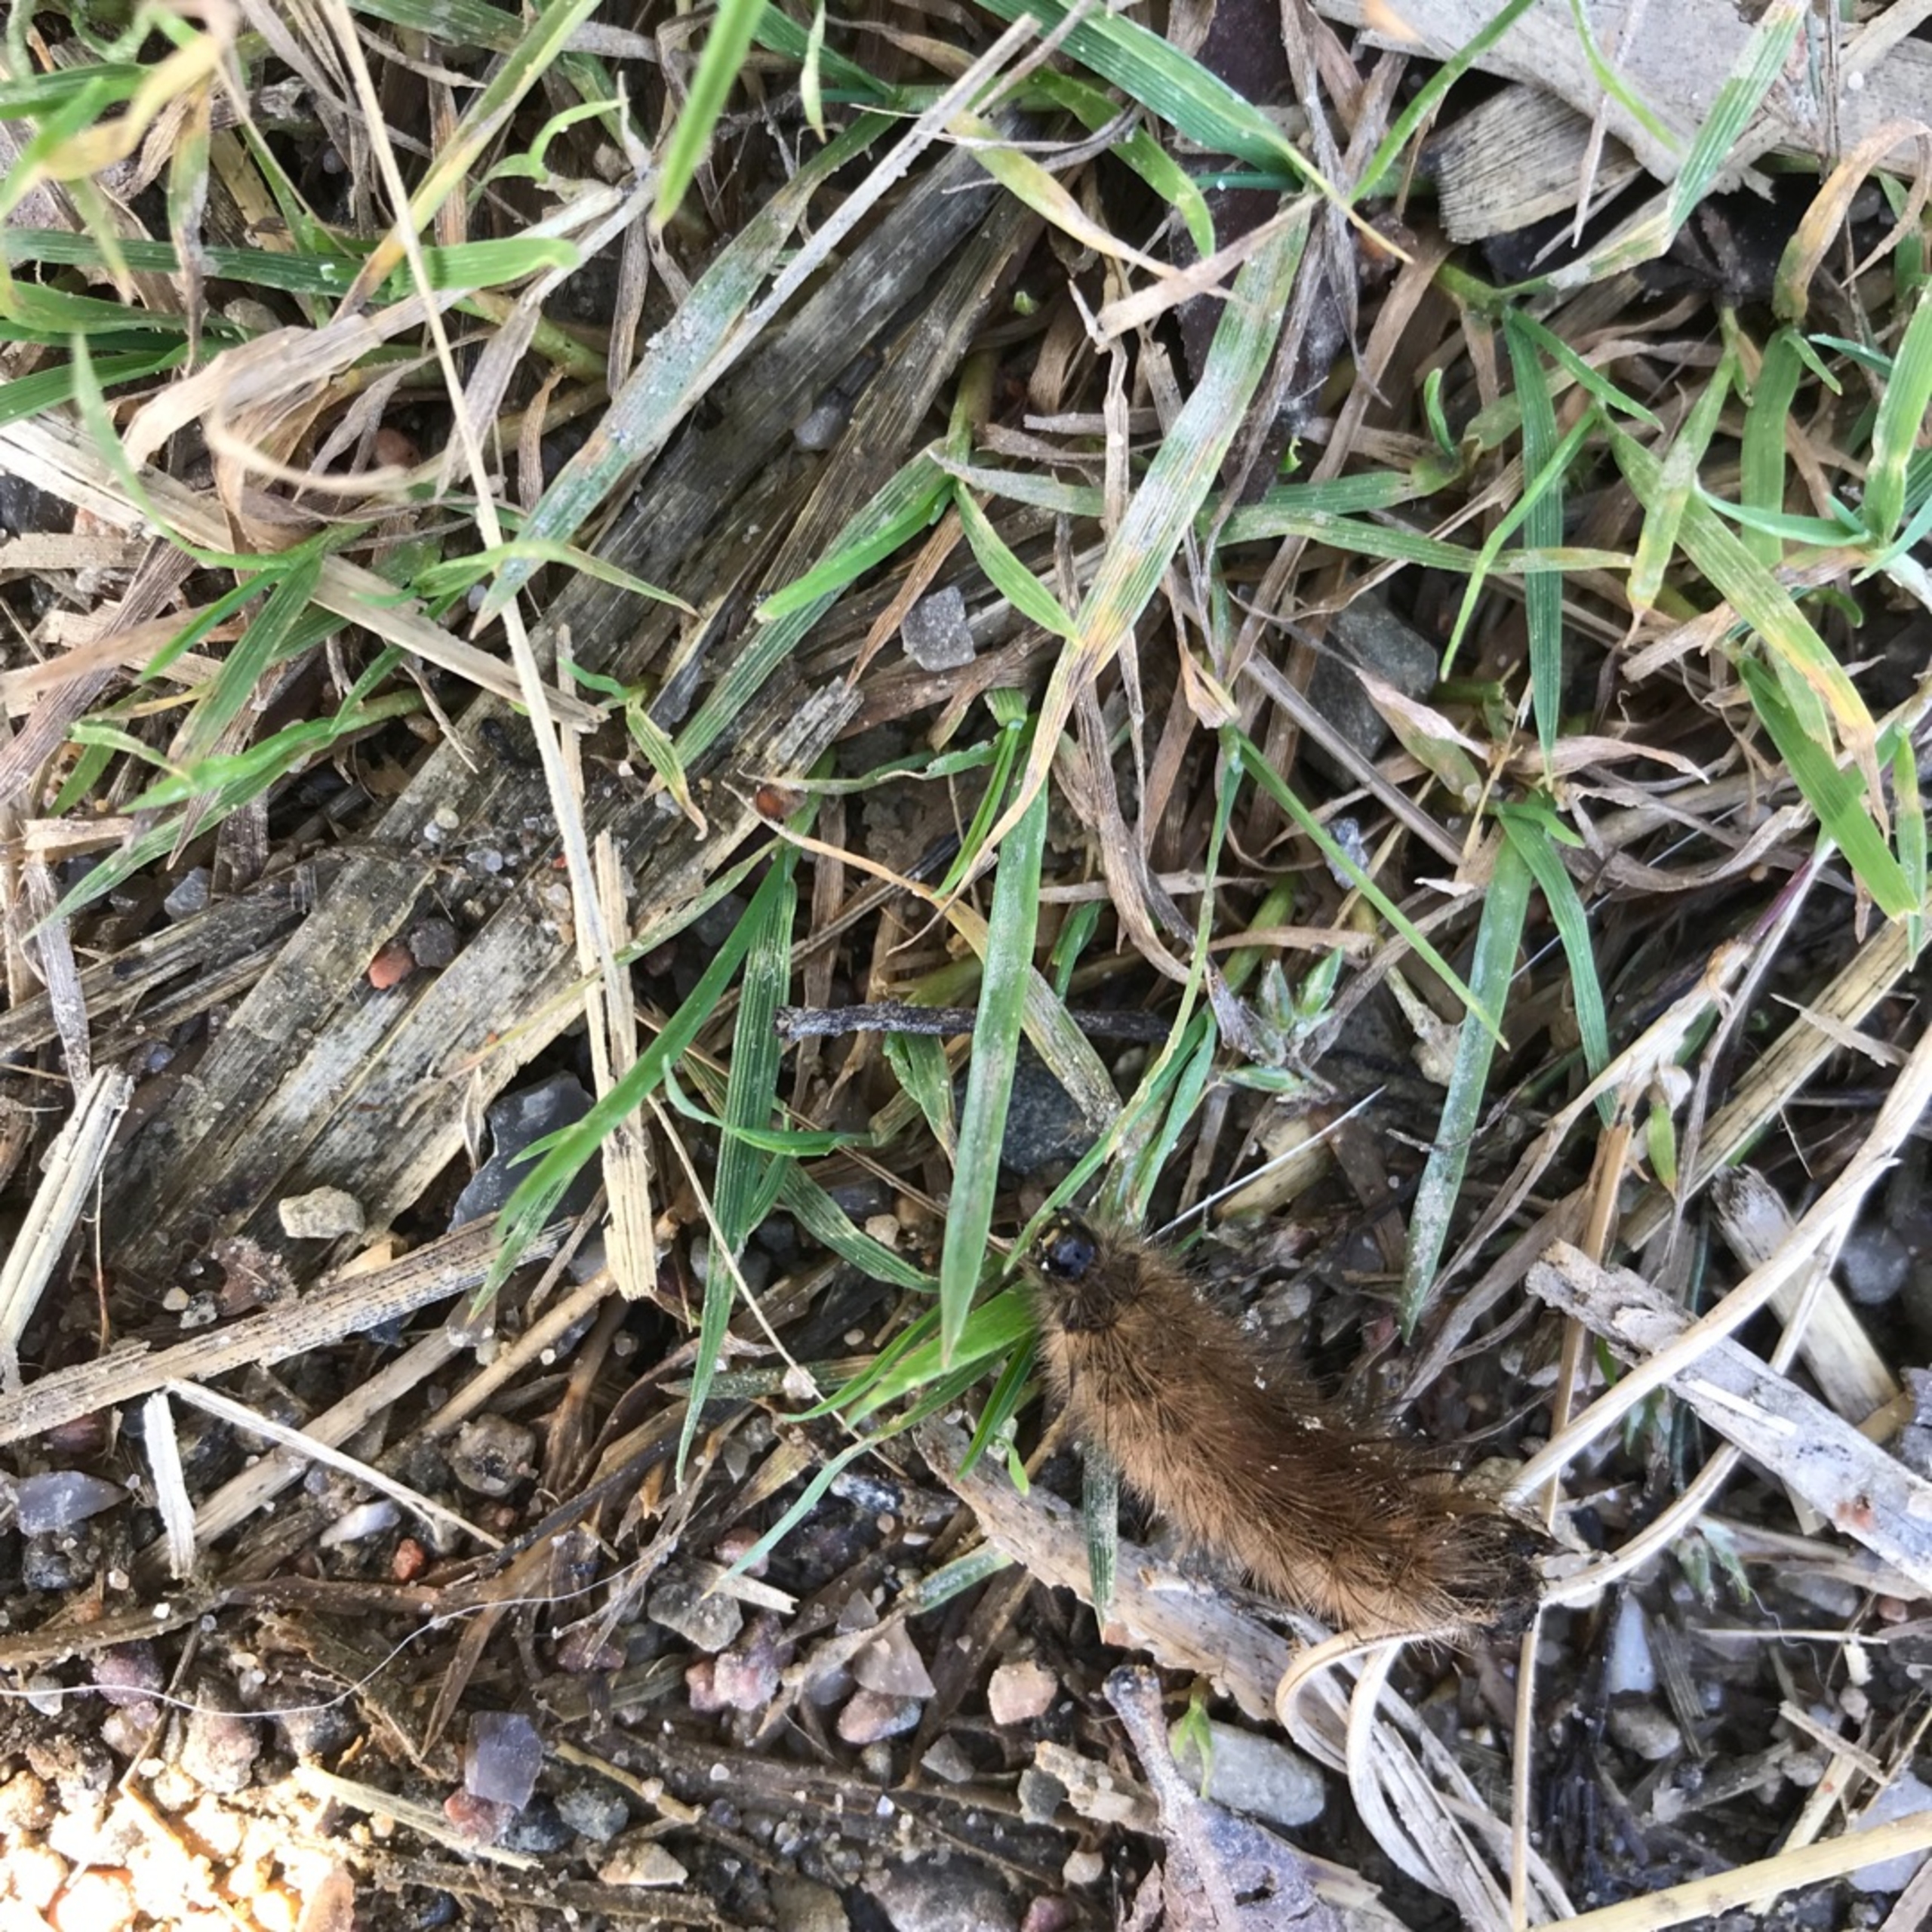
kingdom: Animalia
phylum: Arthropoda
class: Insecta
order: Lepidoptera
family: Erebidae
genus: Phragmatobia
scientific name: Phragmatobia fuliginosa
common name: Kanelbjørn
